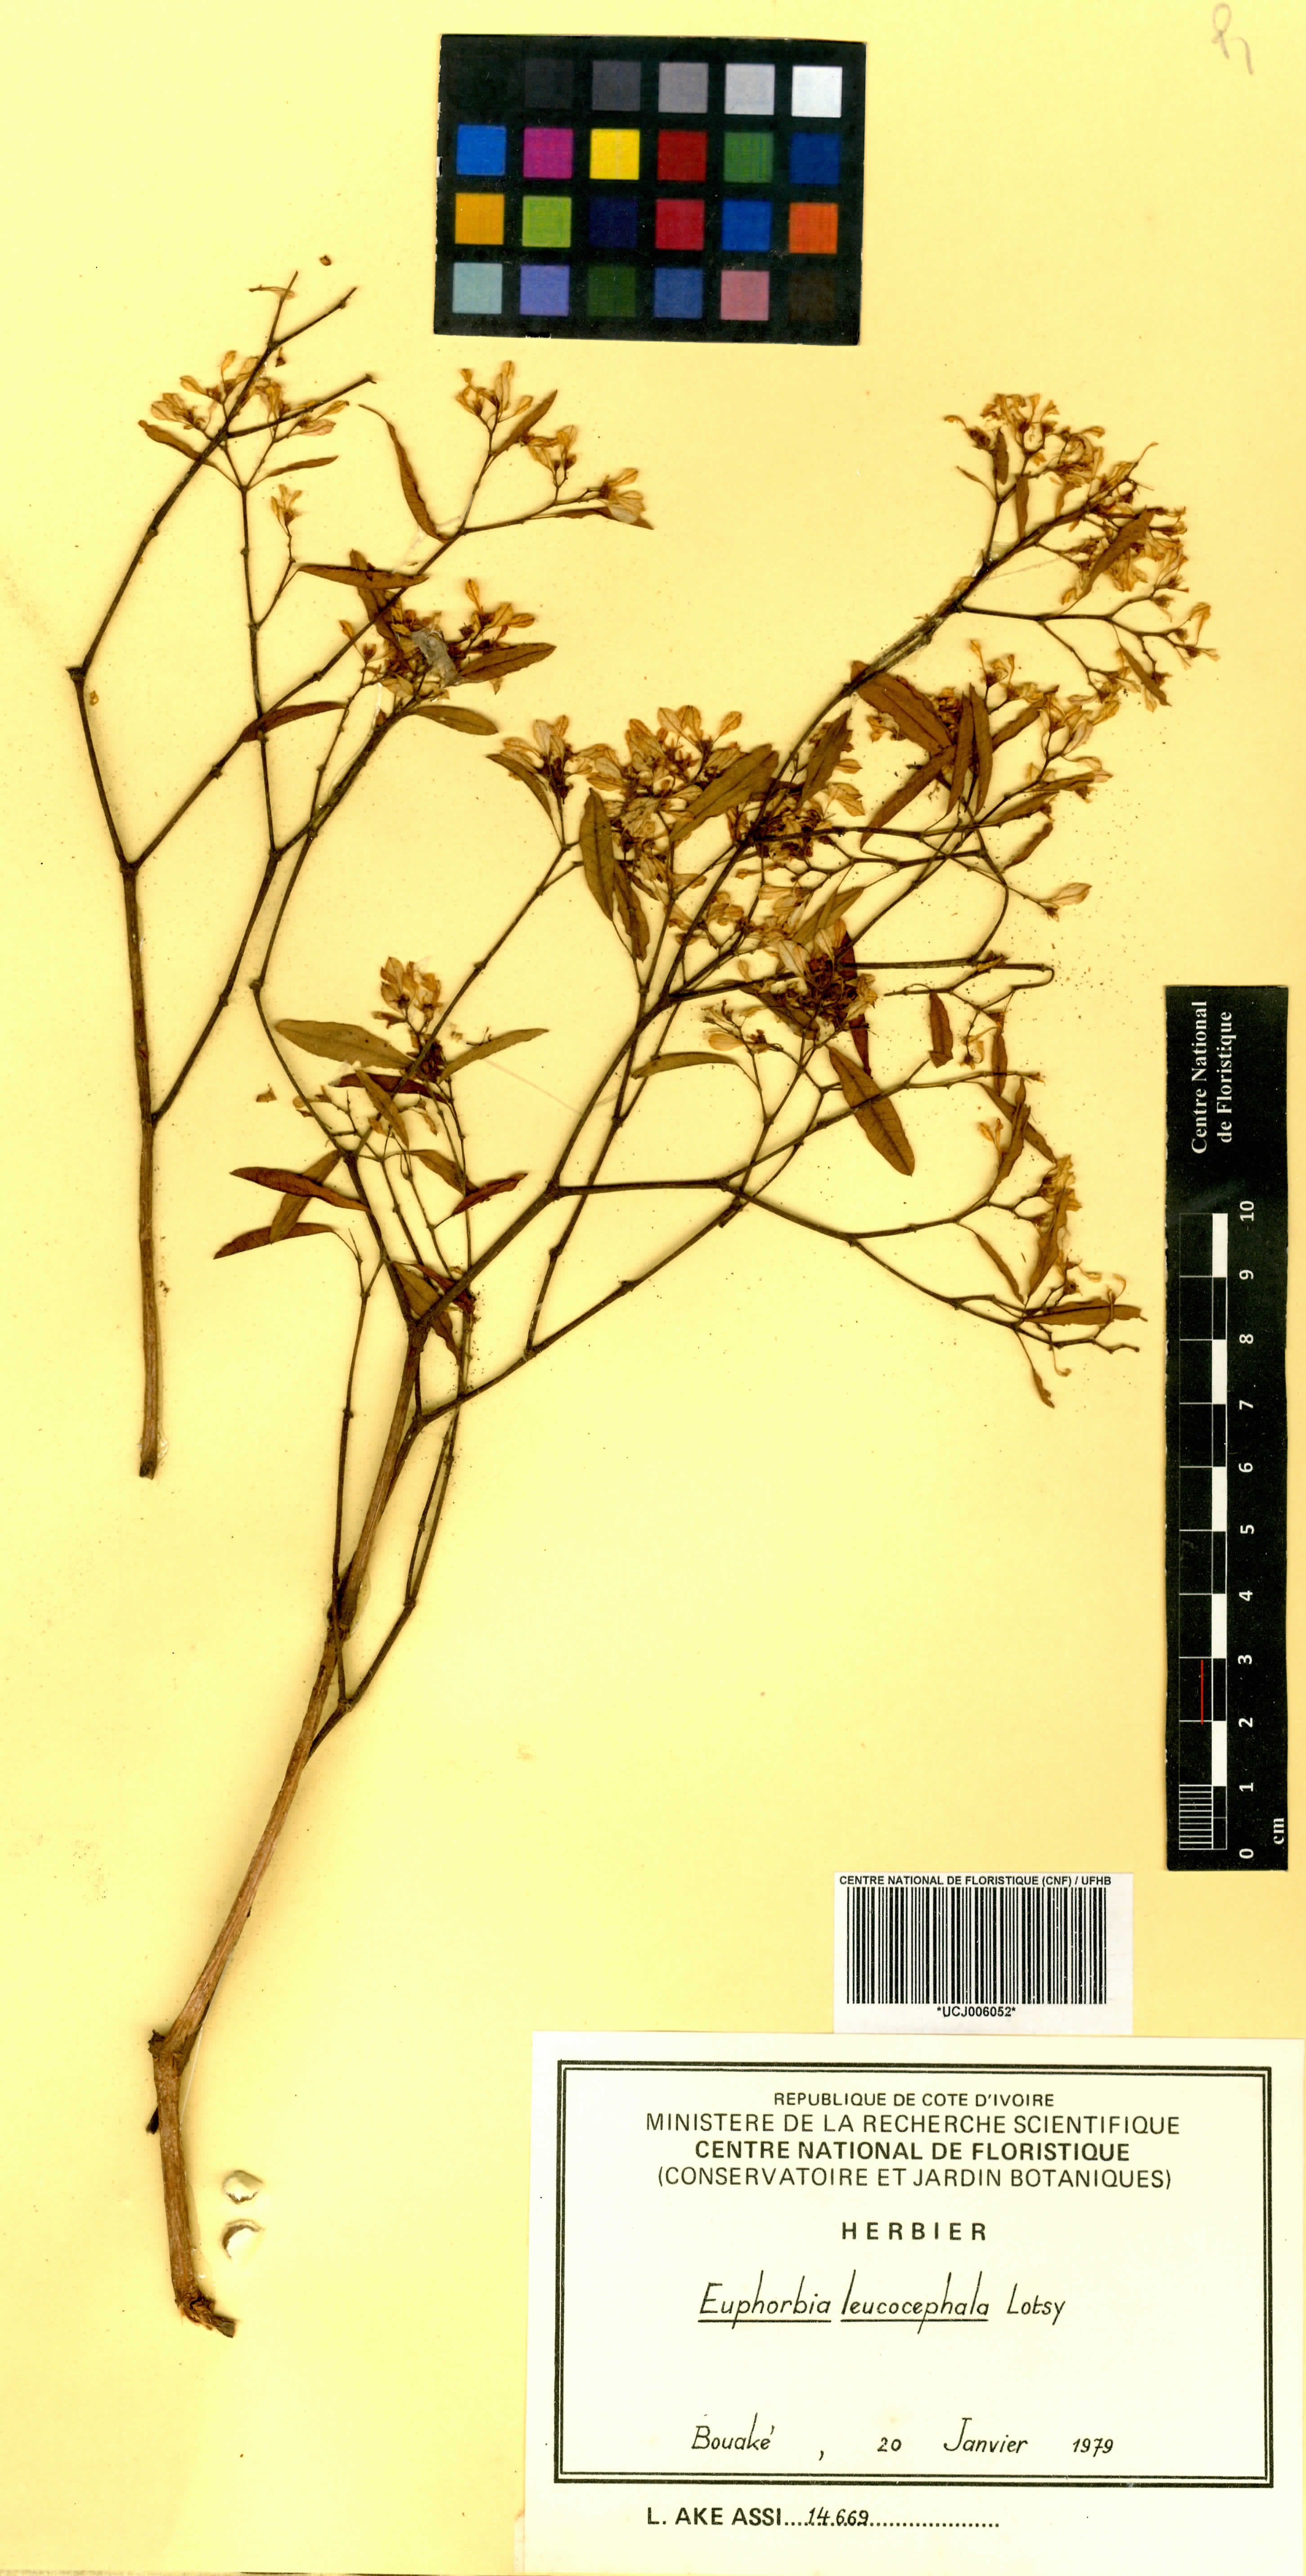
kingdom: Plantae
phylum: Tracheophyta
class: Magnoliopsida
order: Malpighiales
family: Euphorbiaceae
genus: Euphorbia
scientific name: Euphorbia leucocephala
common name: Pascuita
